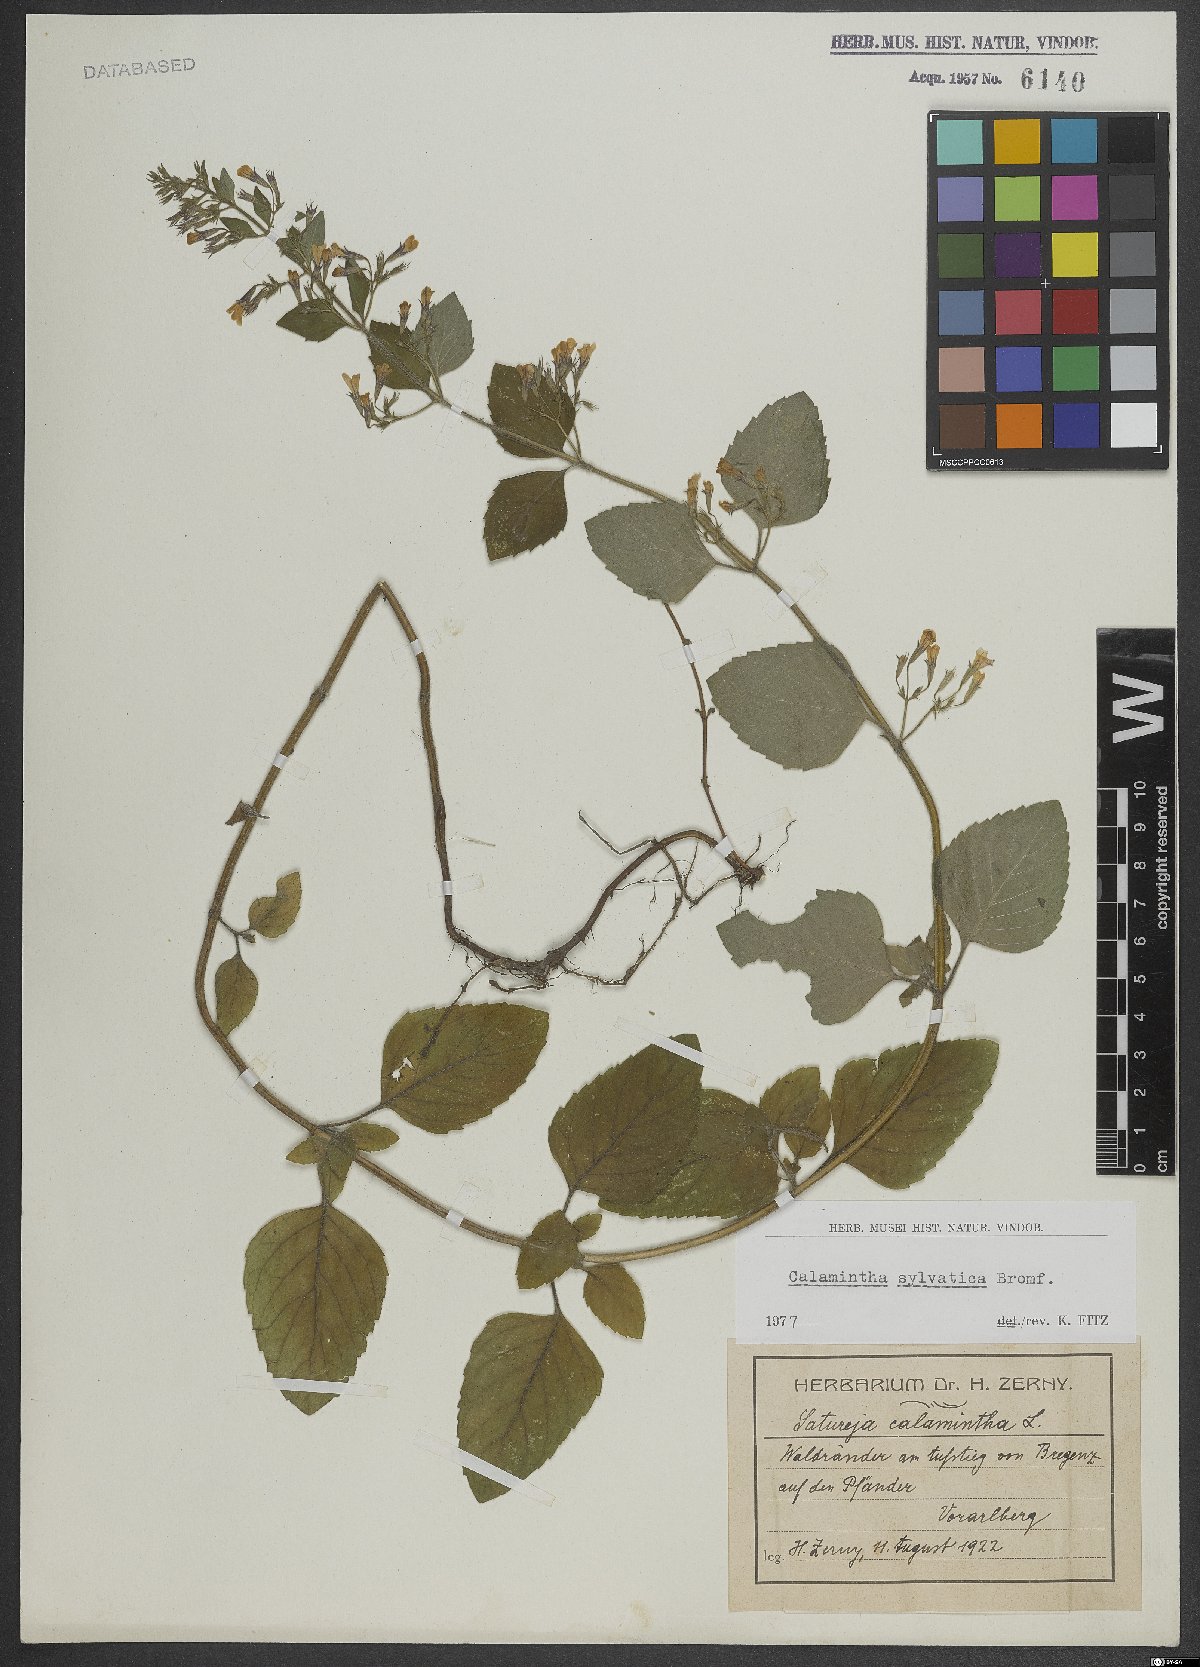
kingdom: Plantae
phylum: Tracheophyta
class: Magnoliopsida
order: Lamiales
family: Lamiaceae
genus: Clinopodium
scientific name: Clinopodium menthifolium
